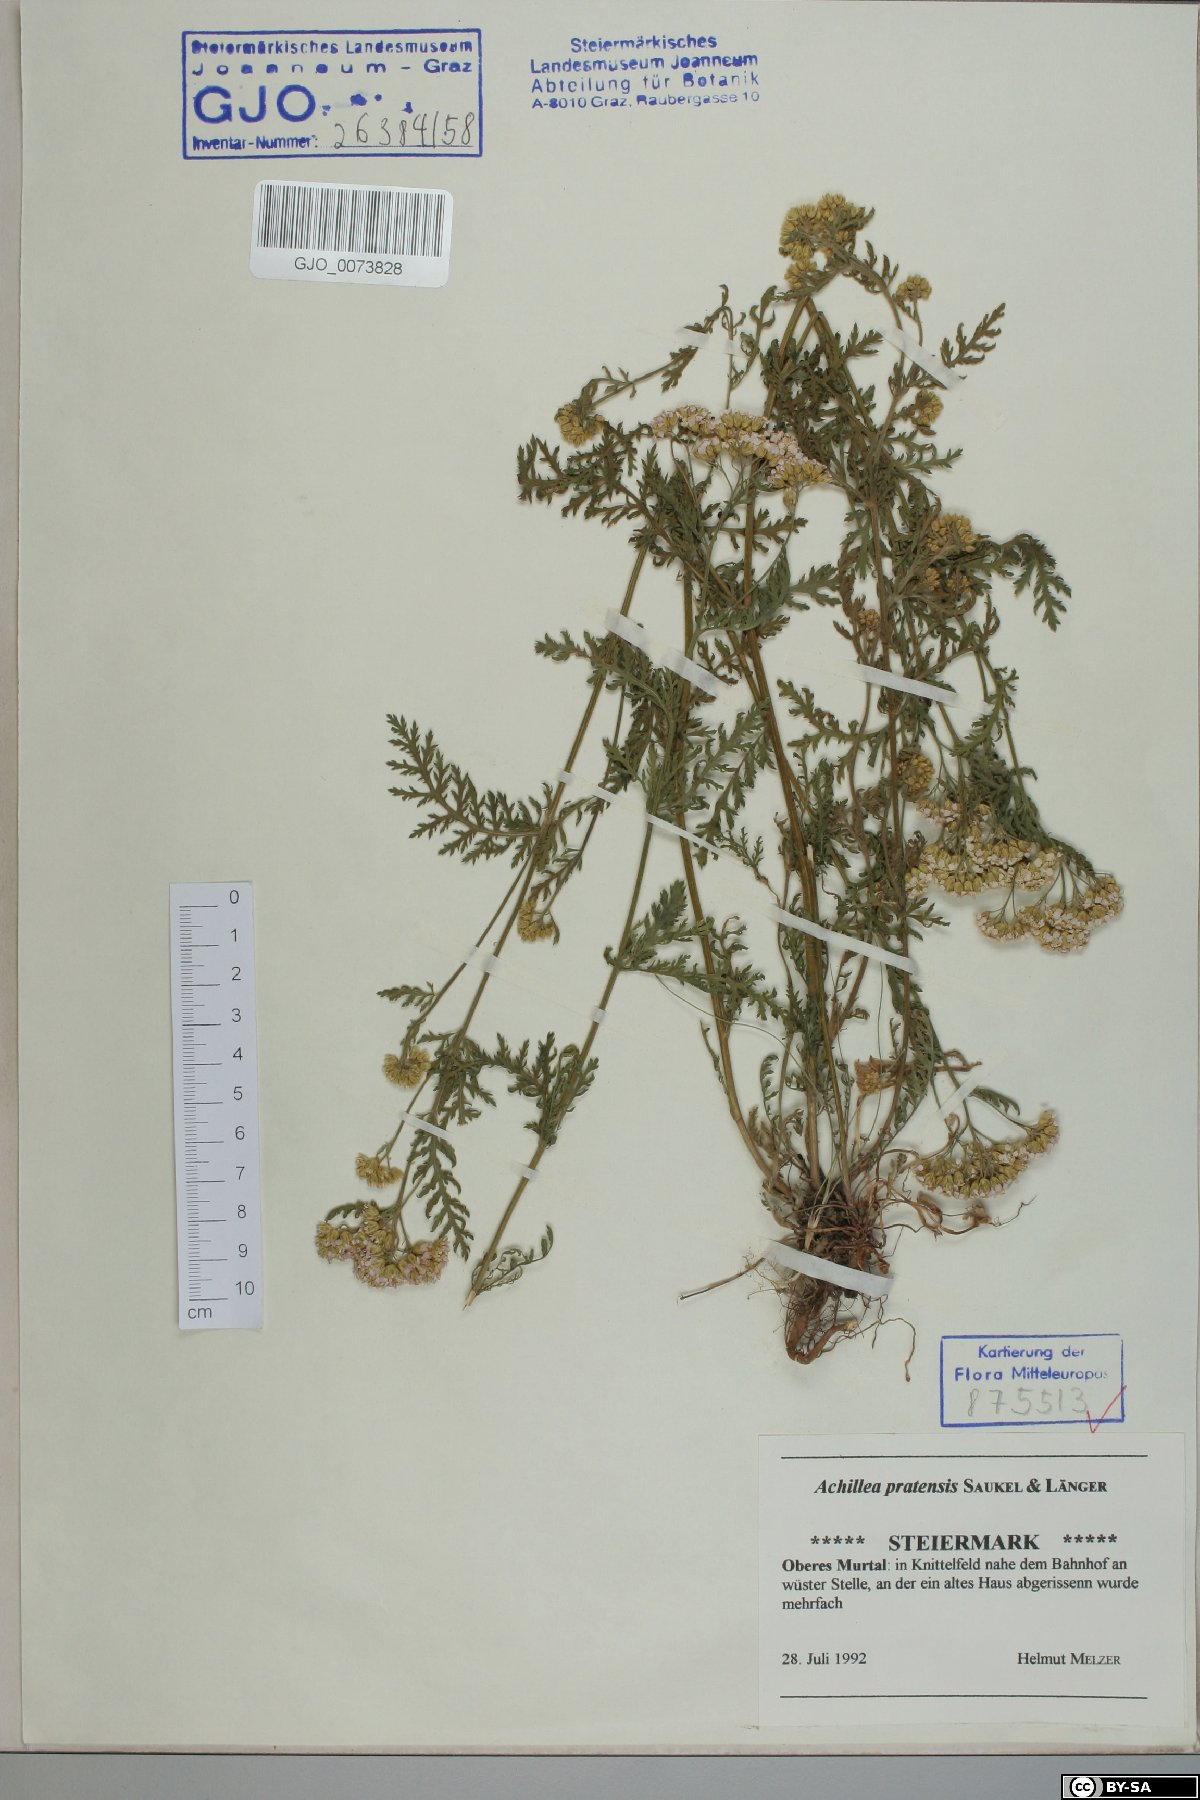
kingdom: Plantae
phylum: Tracheophyta
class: Magnoliopsida
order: Asterales
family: Asteraceae
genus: Achillea
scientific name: Achillea pratensis
